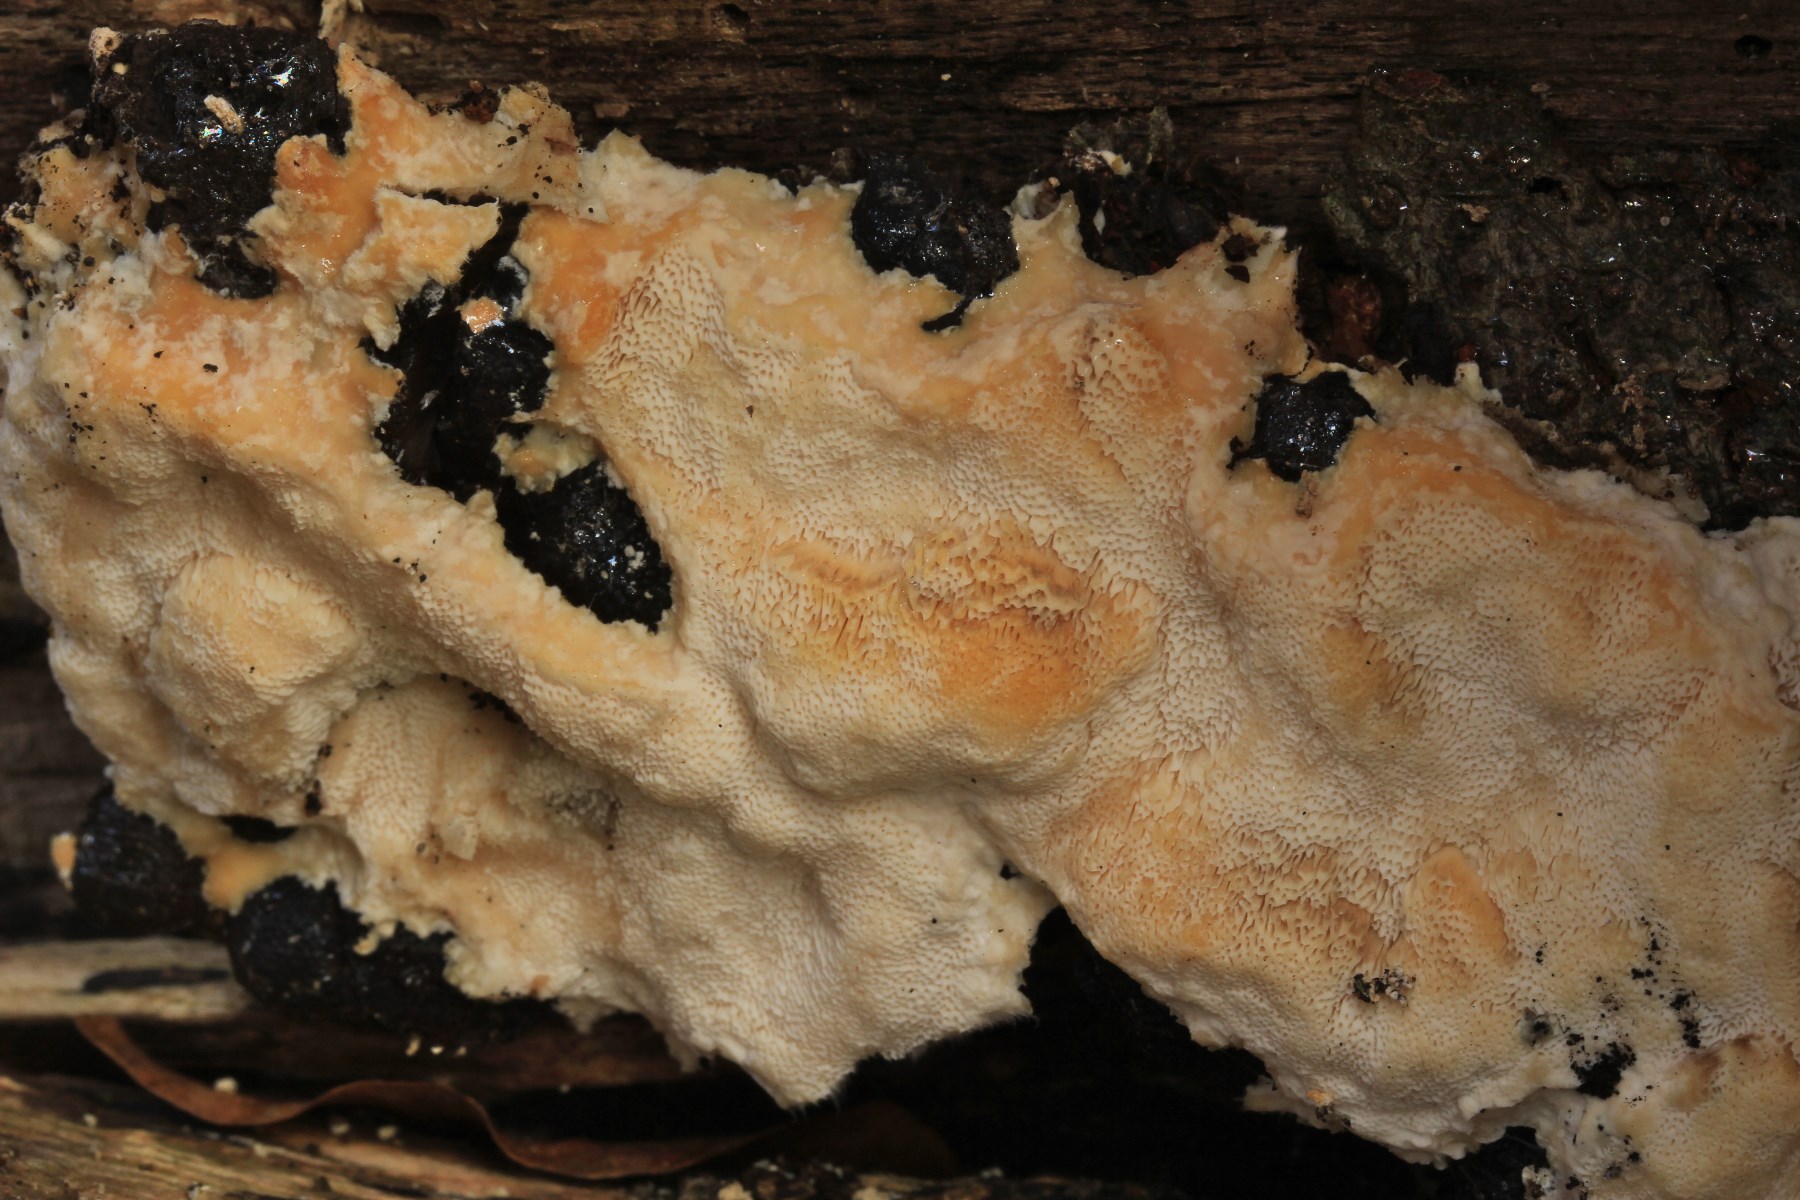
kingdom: Fungi
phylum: Basidiomycota
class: Agaricomycetes
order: Polyporales
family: Steccherinaceae
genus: Antrodiella
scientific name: Antrodiella mentschulensis
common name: abrikosporesvamp
